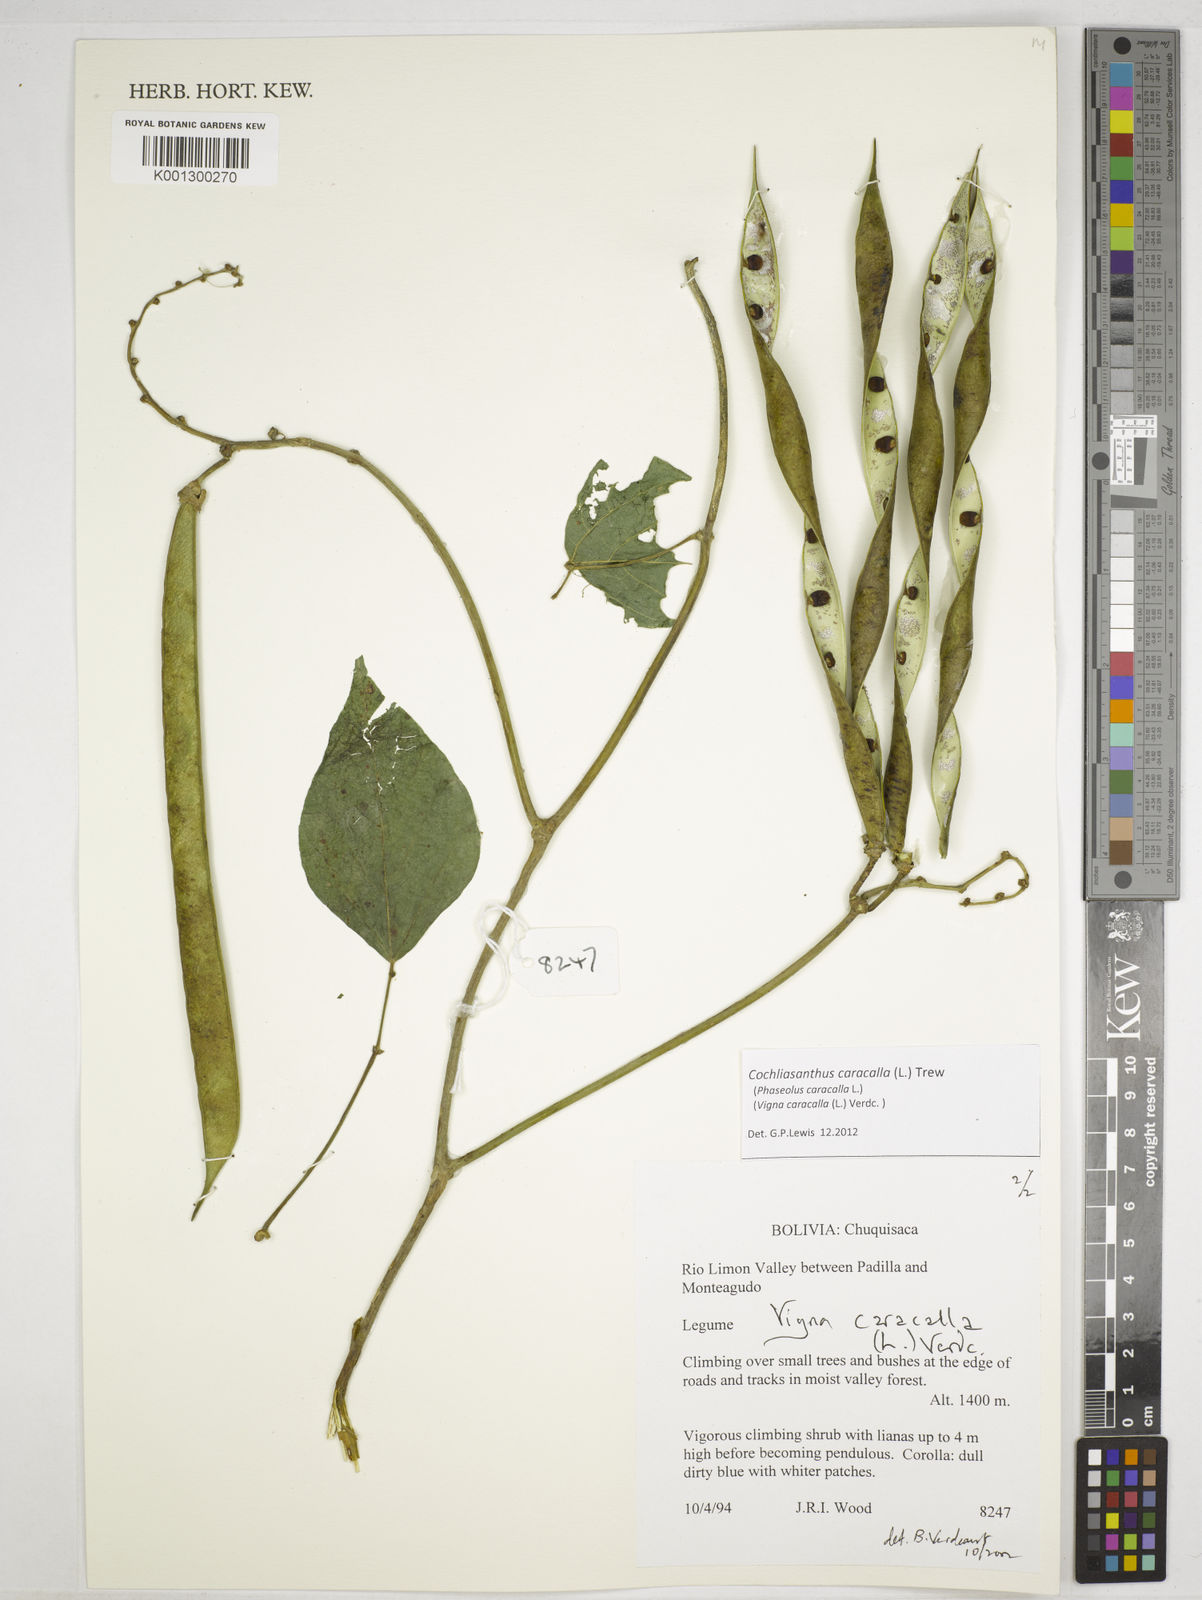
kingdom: Plantae
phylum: Tracheophyta
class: Magnoliopsida
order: Fabales
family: Fabaceae
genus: Cochliasanthus
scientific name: Cochliasanthus caracalla
